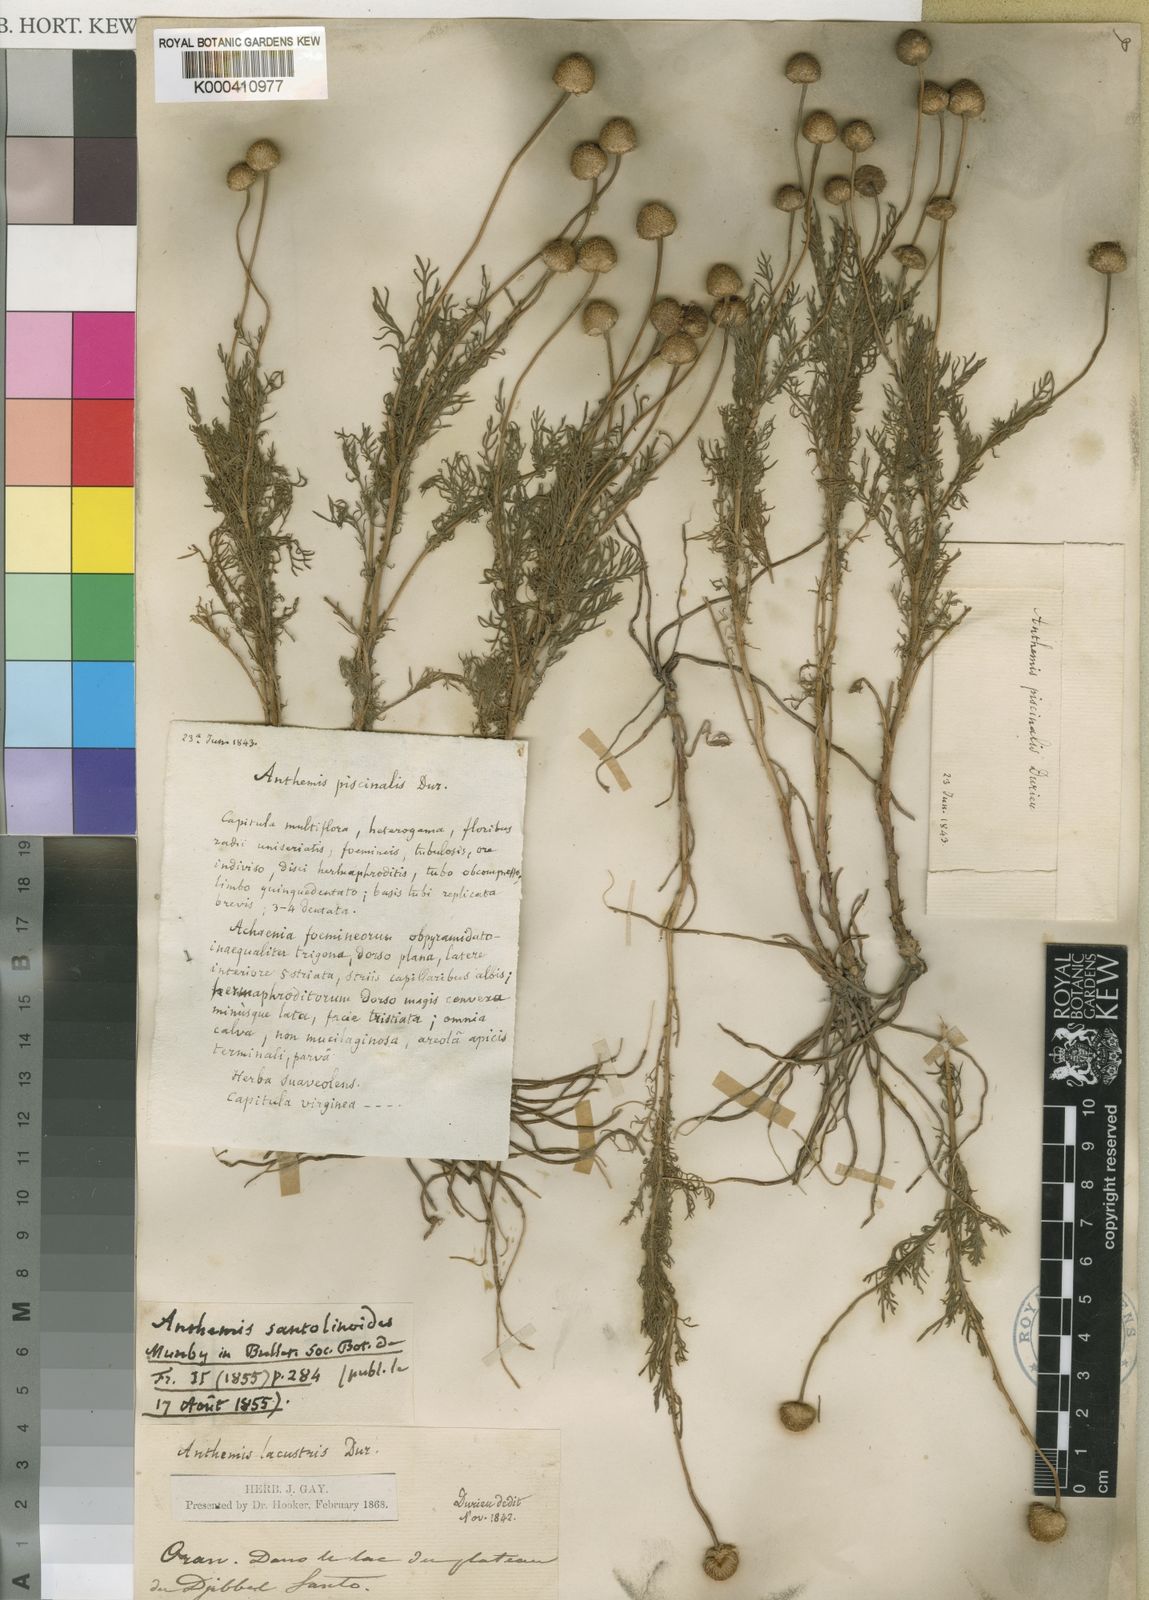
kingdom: Plantae
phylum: Tracheophyta
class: Magnoliopsida
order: Asterales
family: Asteraceae
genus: Chamaemelum
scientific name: Chamaemelum
